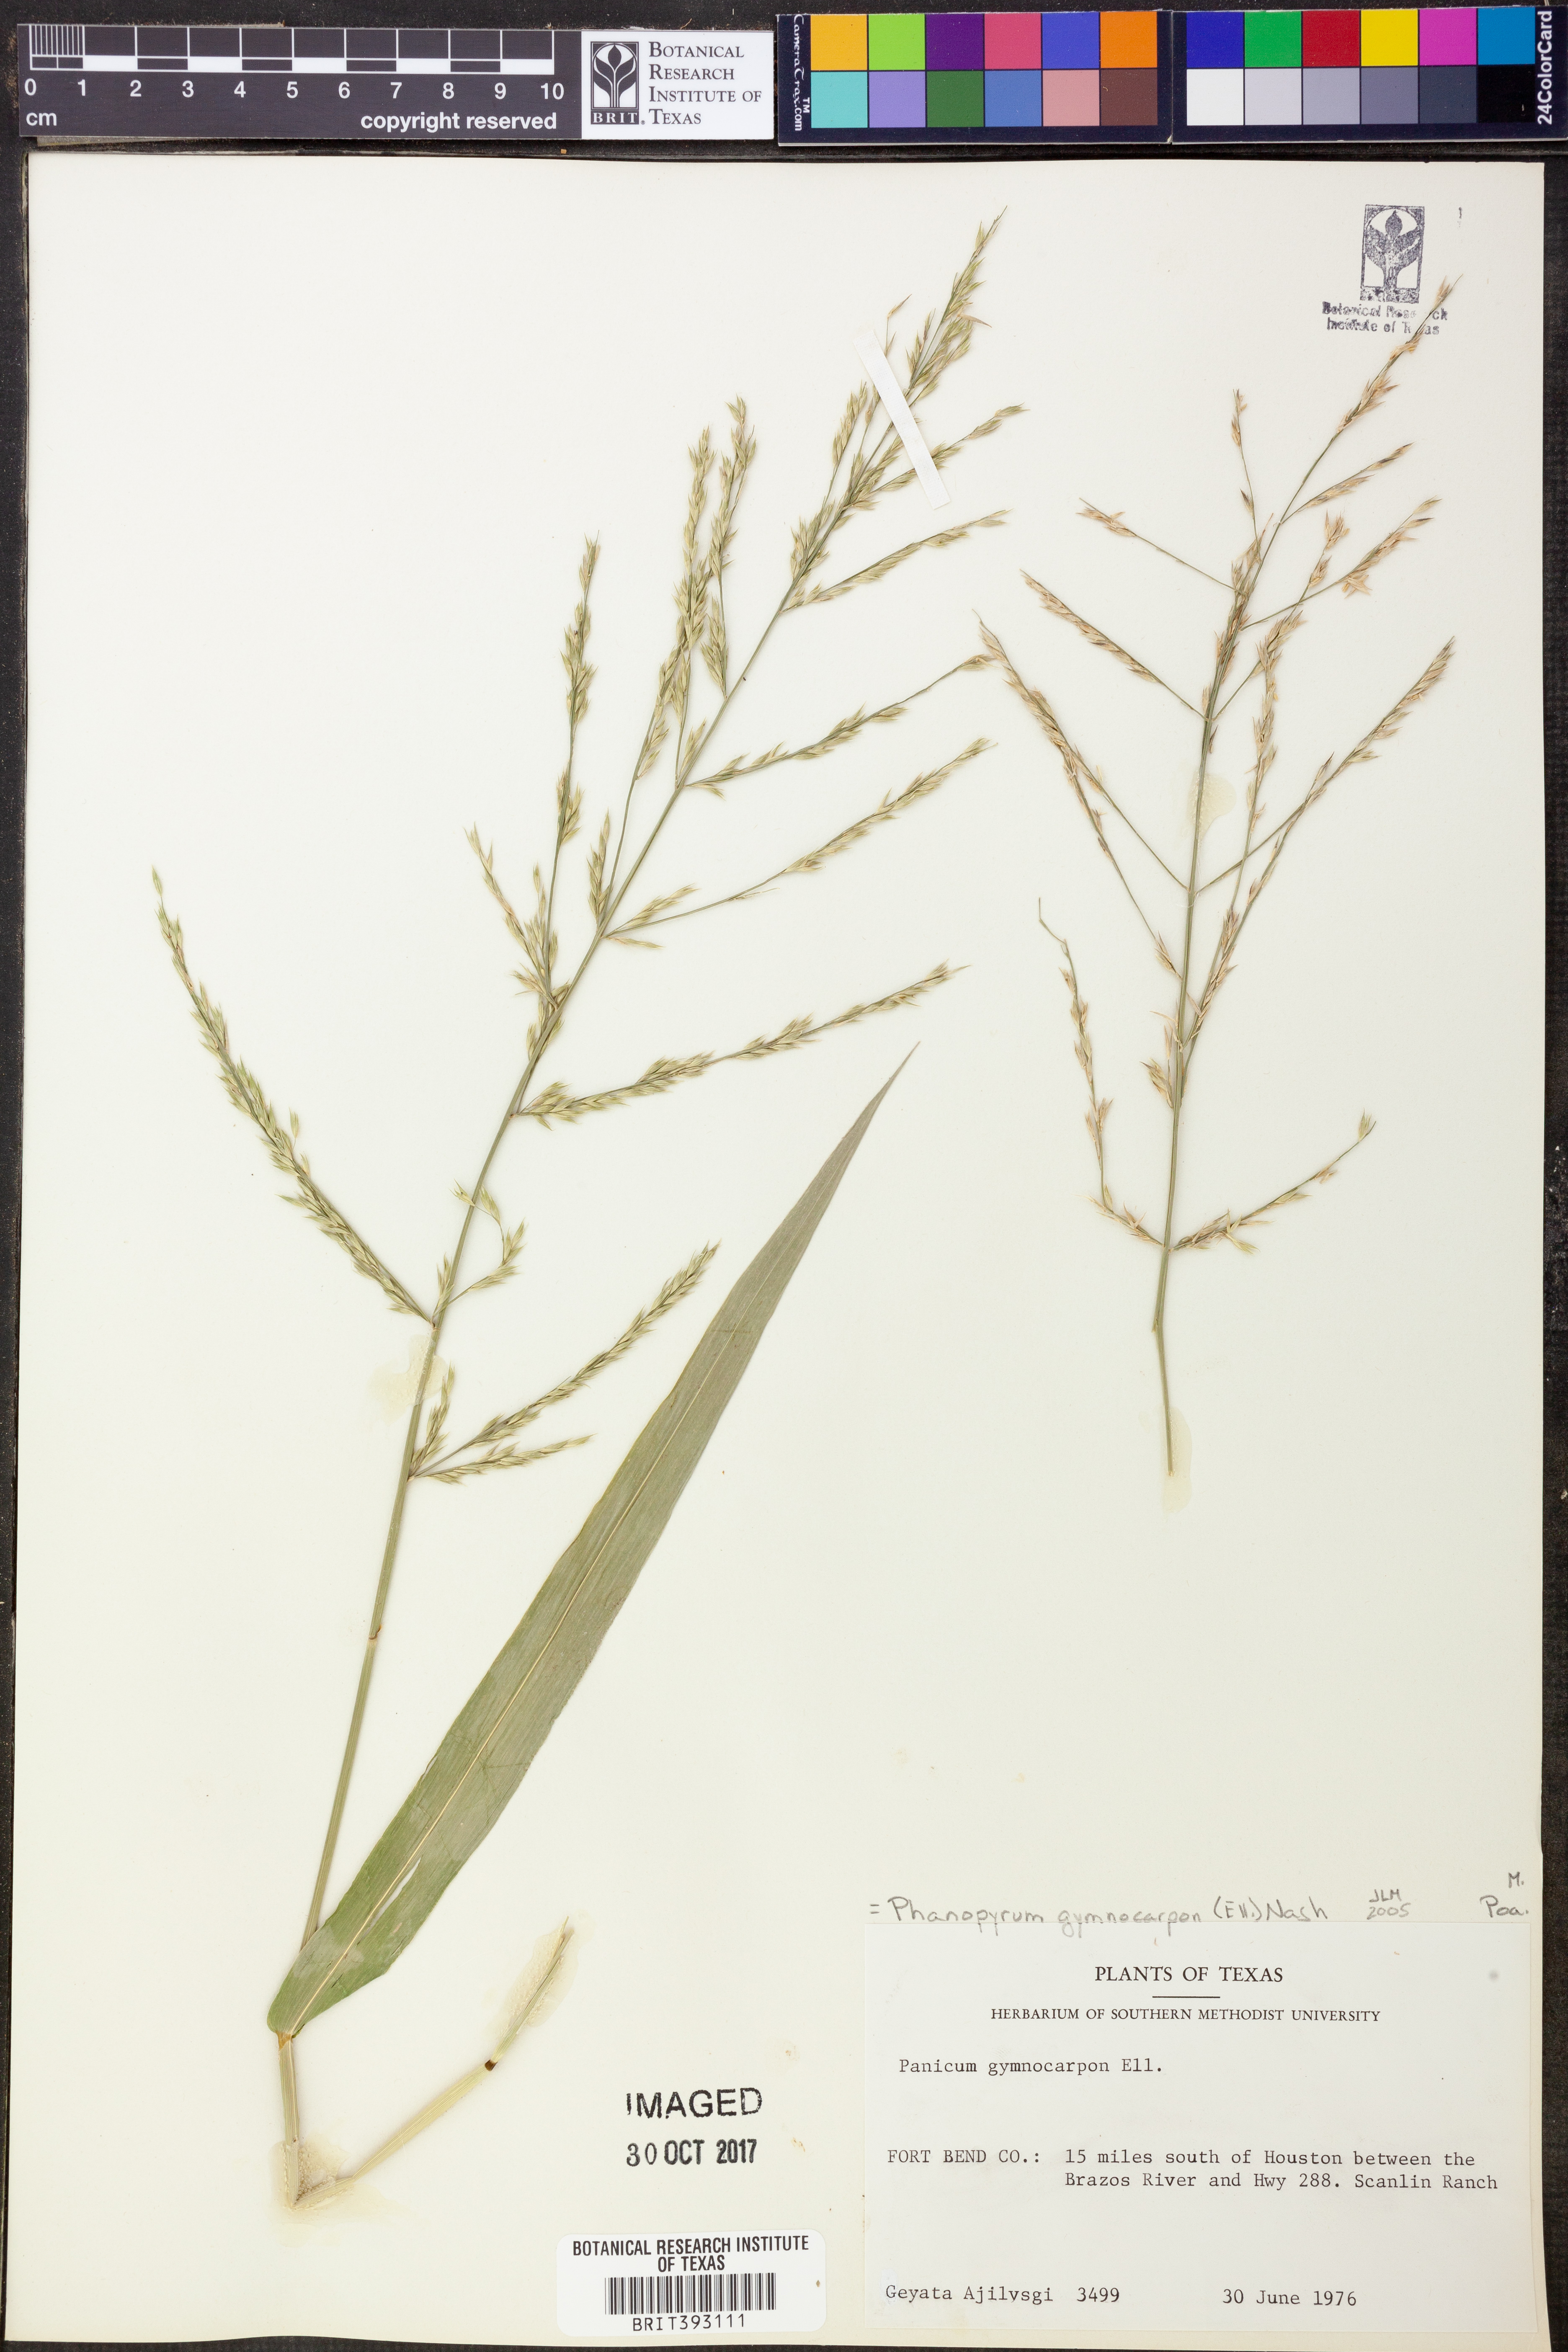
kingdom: Plantae
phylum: Tracheophyta
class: Liliopsida
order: Poales
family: Poaceae
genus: Panicum
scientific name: Panicum gymnocarpon
